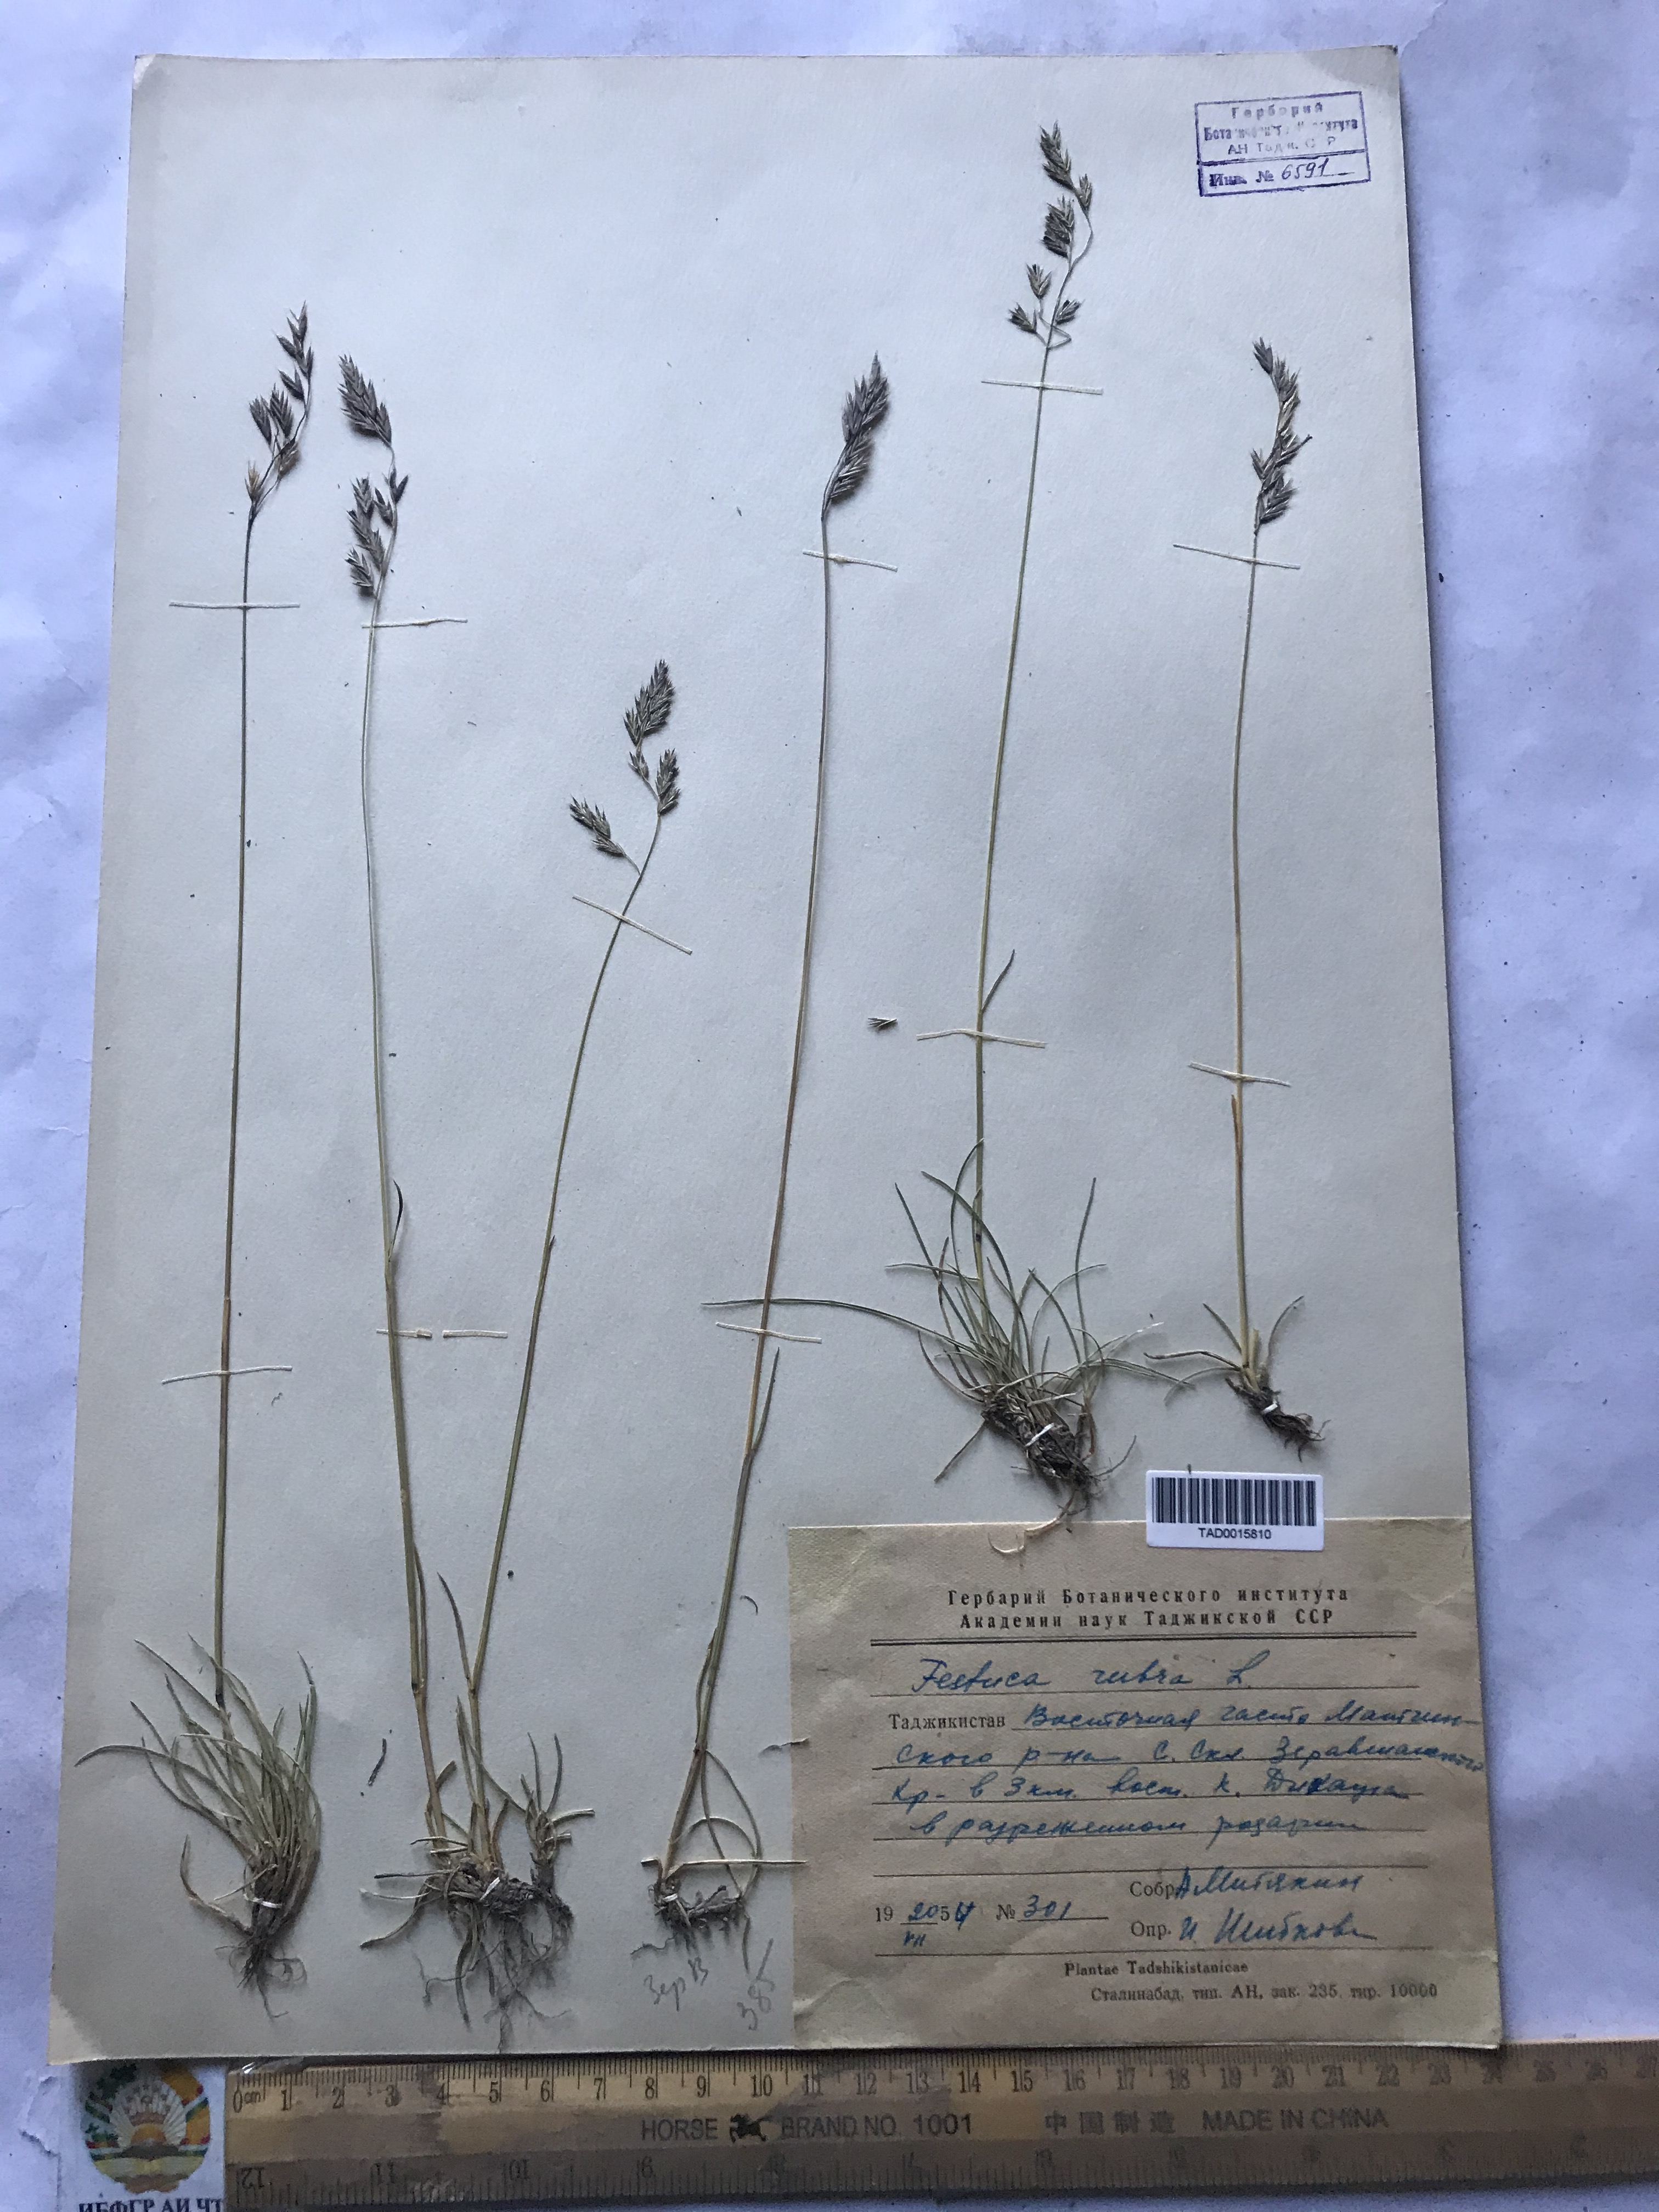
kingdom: Plantae
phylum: Tracheophyta
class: Liliopsida
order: Poales
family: Poaceae
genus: Festuca
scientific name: Festuca rubra
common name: Red fescue
